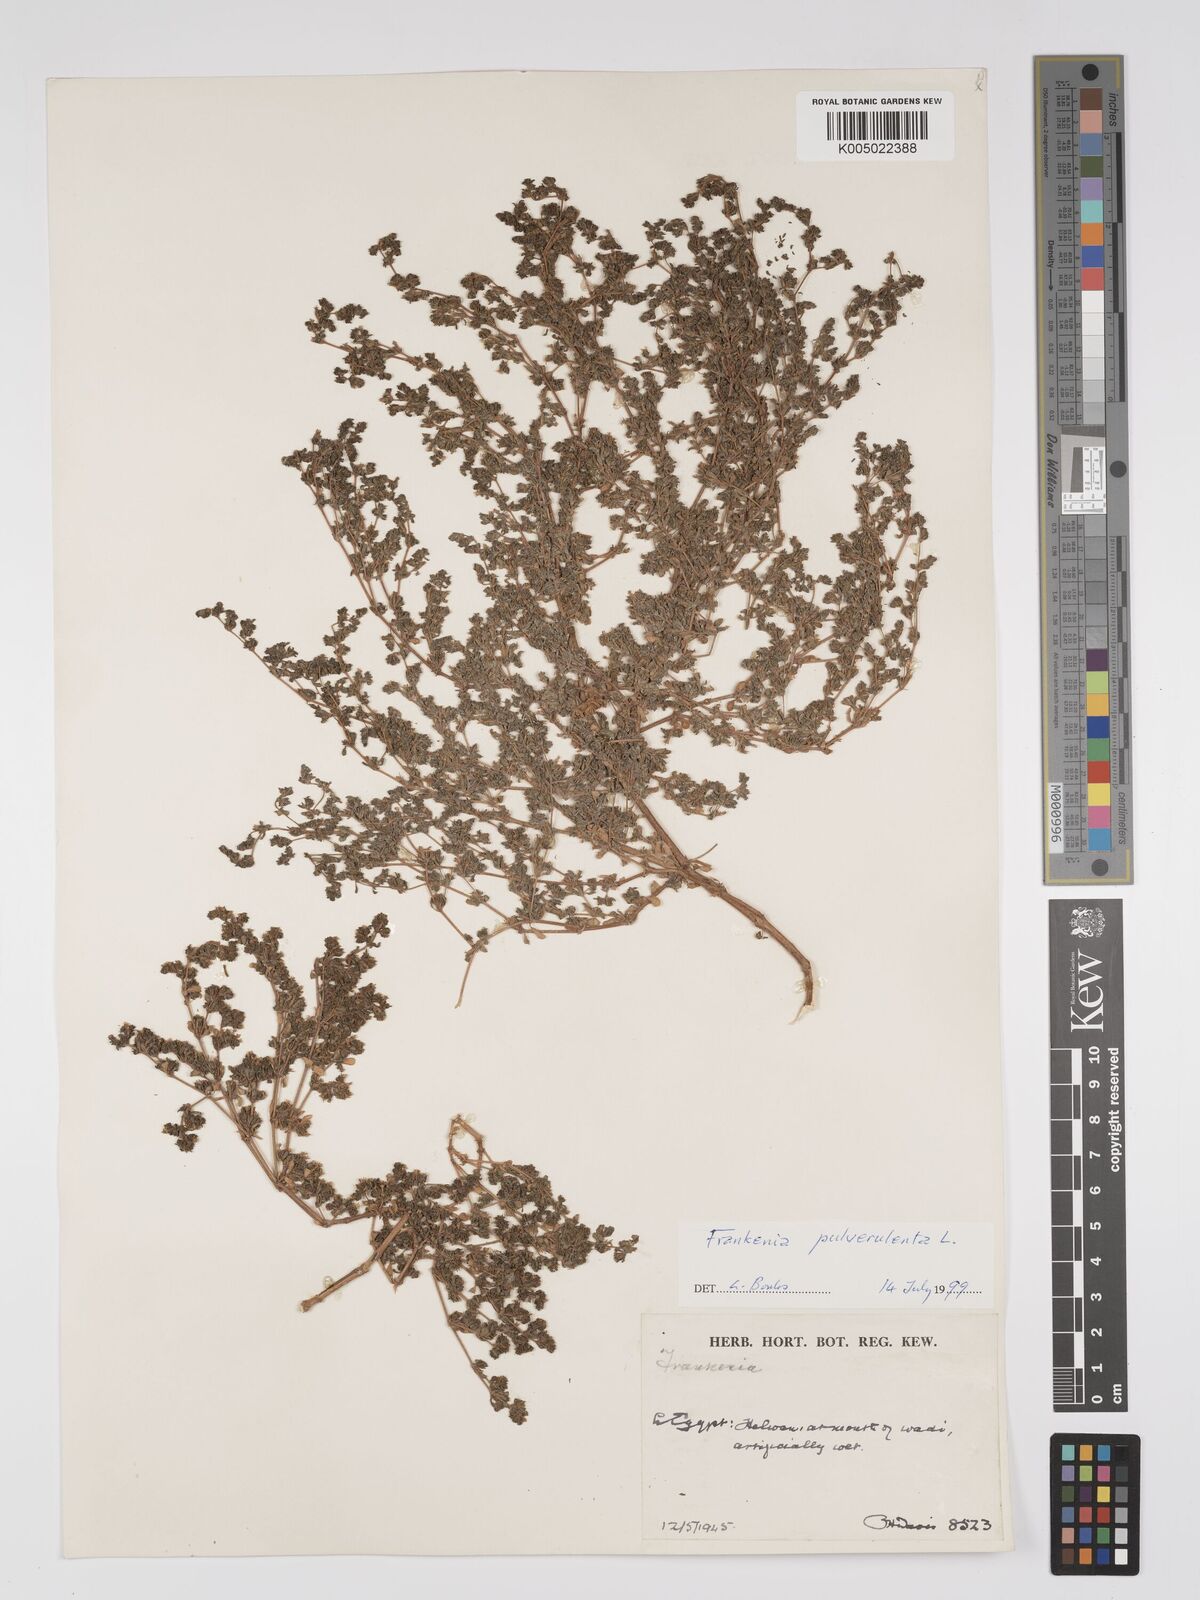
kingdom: Plantae
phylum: Tracheophyta
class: Magnoliopsida
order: Caryophyllales
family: Frankeniaceae
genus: Frankenia
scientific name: Frankenia pulverulenta
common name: European seaheath
